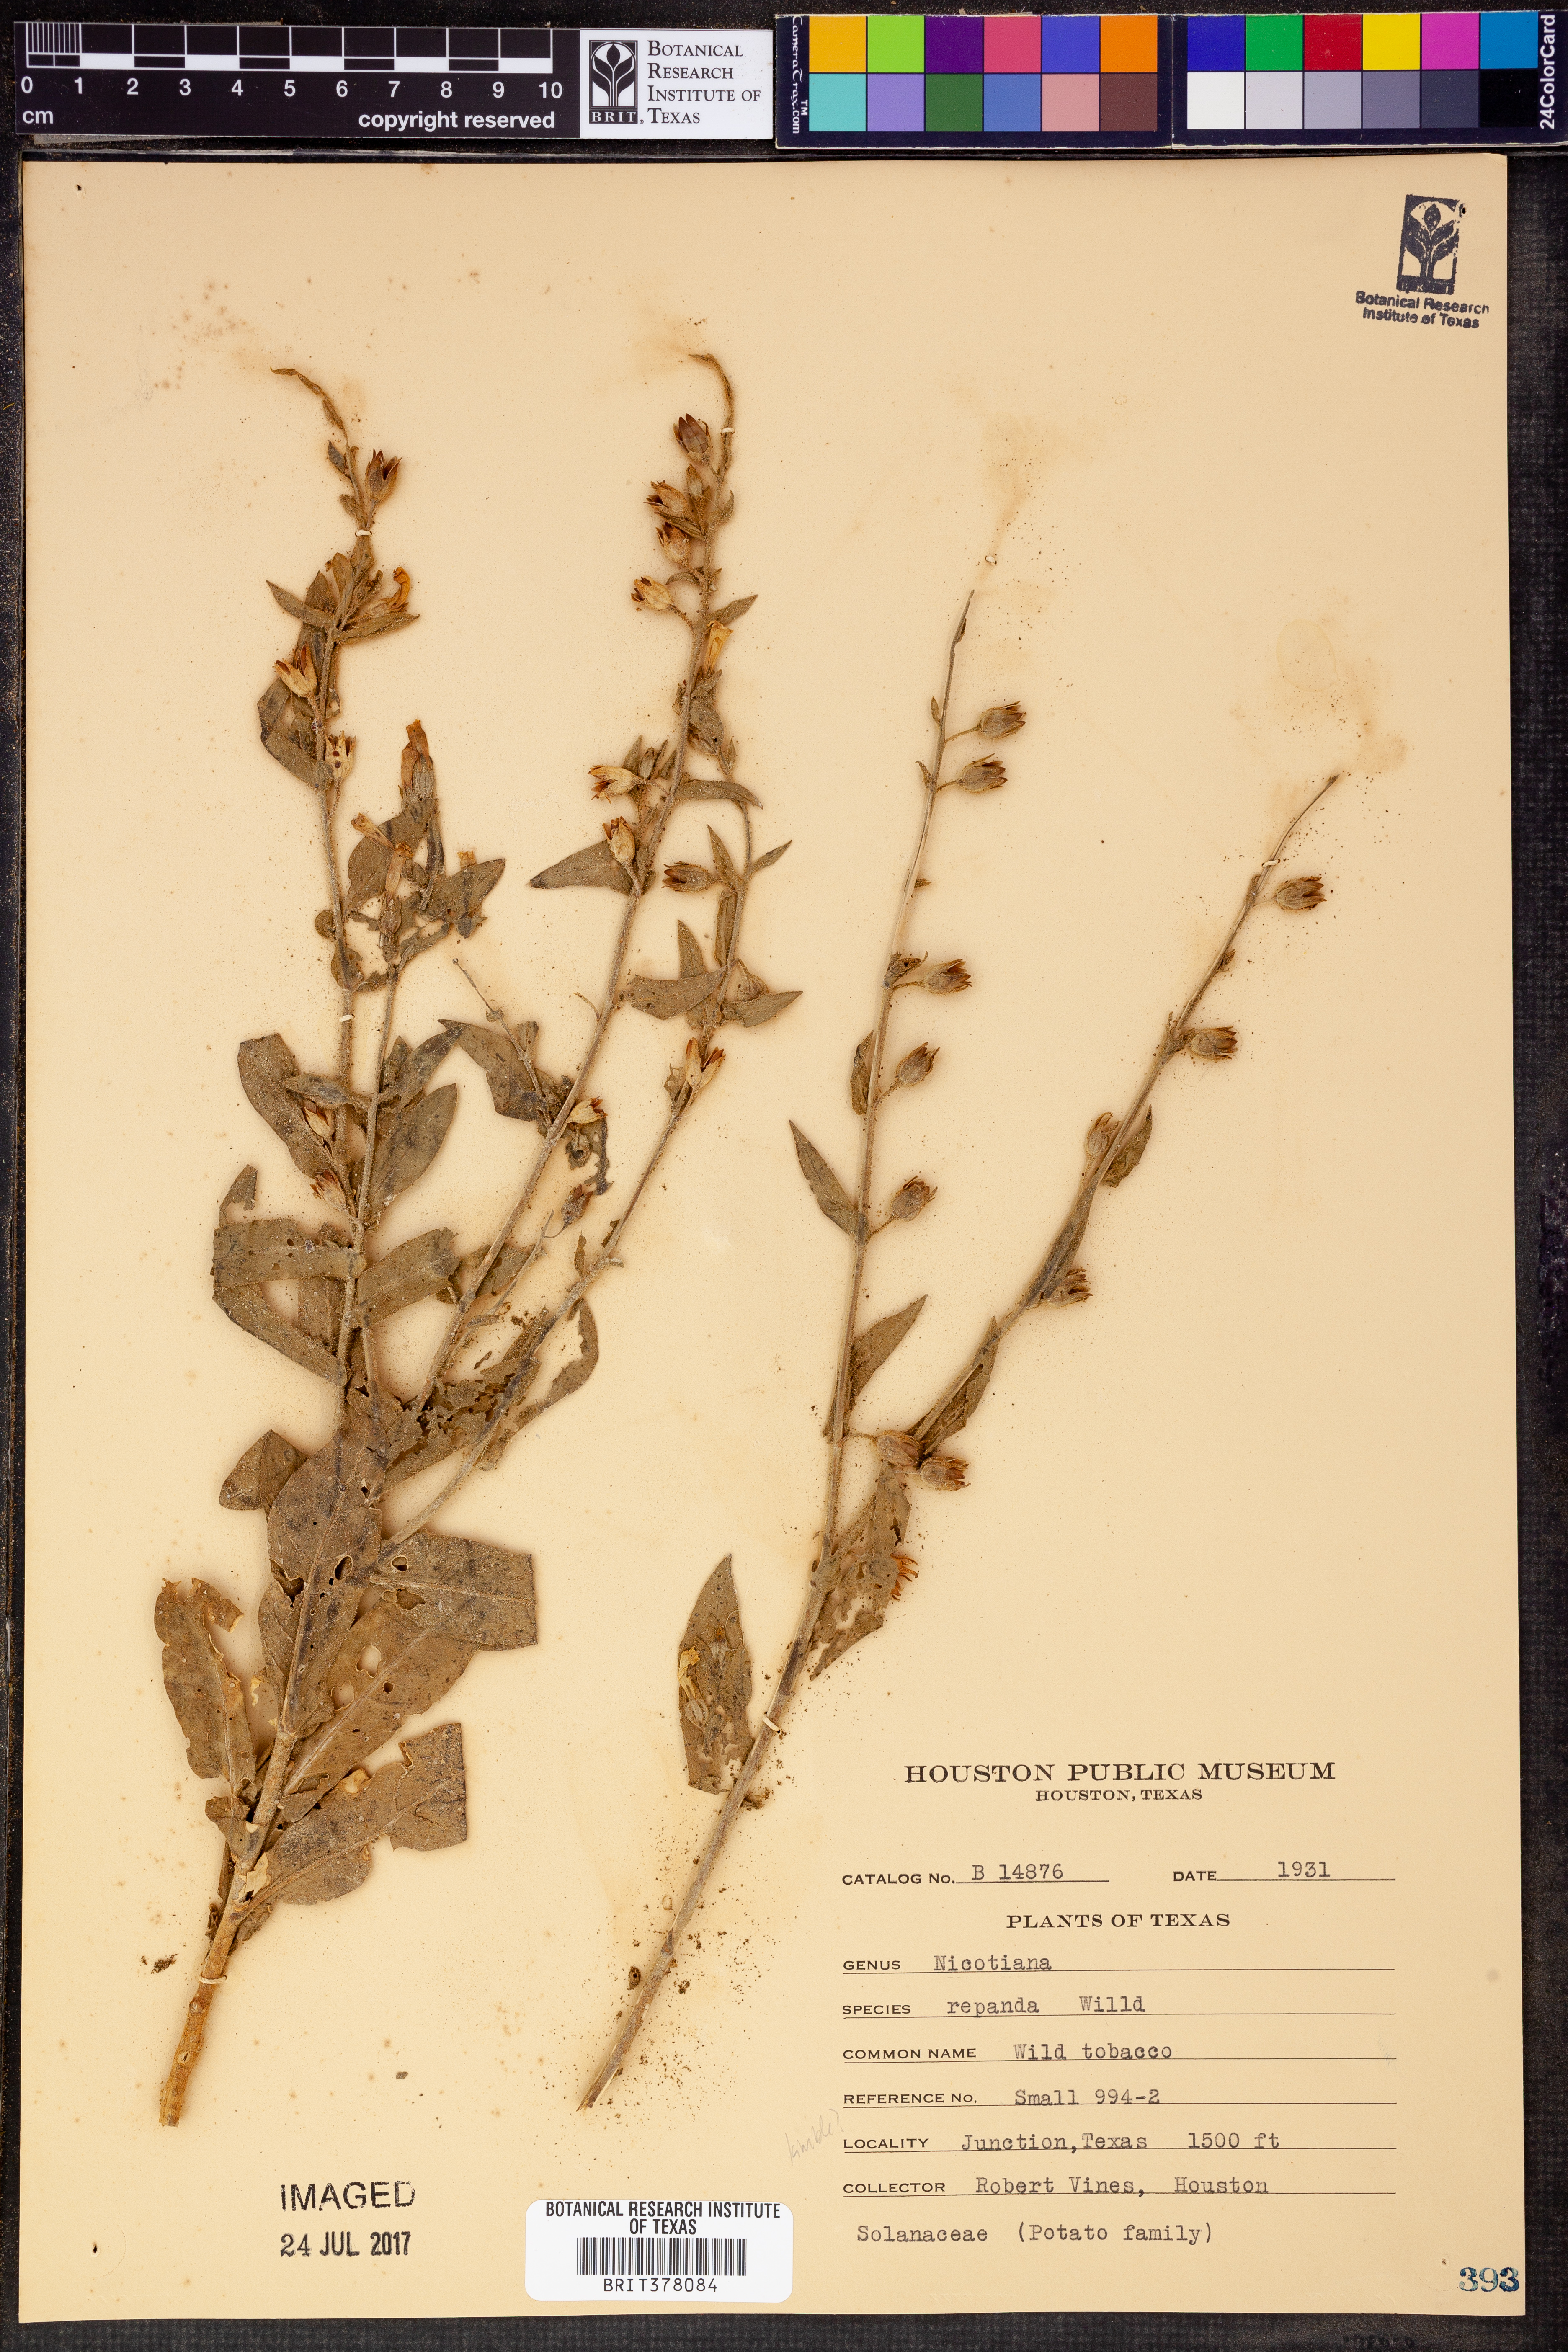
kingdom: Plantae
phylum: Tracheophyta
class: Magnoliopsida
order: Solanales
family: Solanaceae
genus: Nicotiana
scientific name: Nicotiana repanda
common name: Fiddle-leaf tobacco
